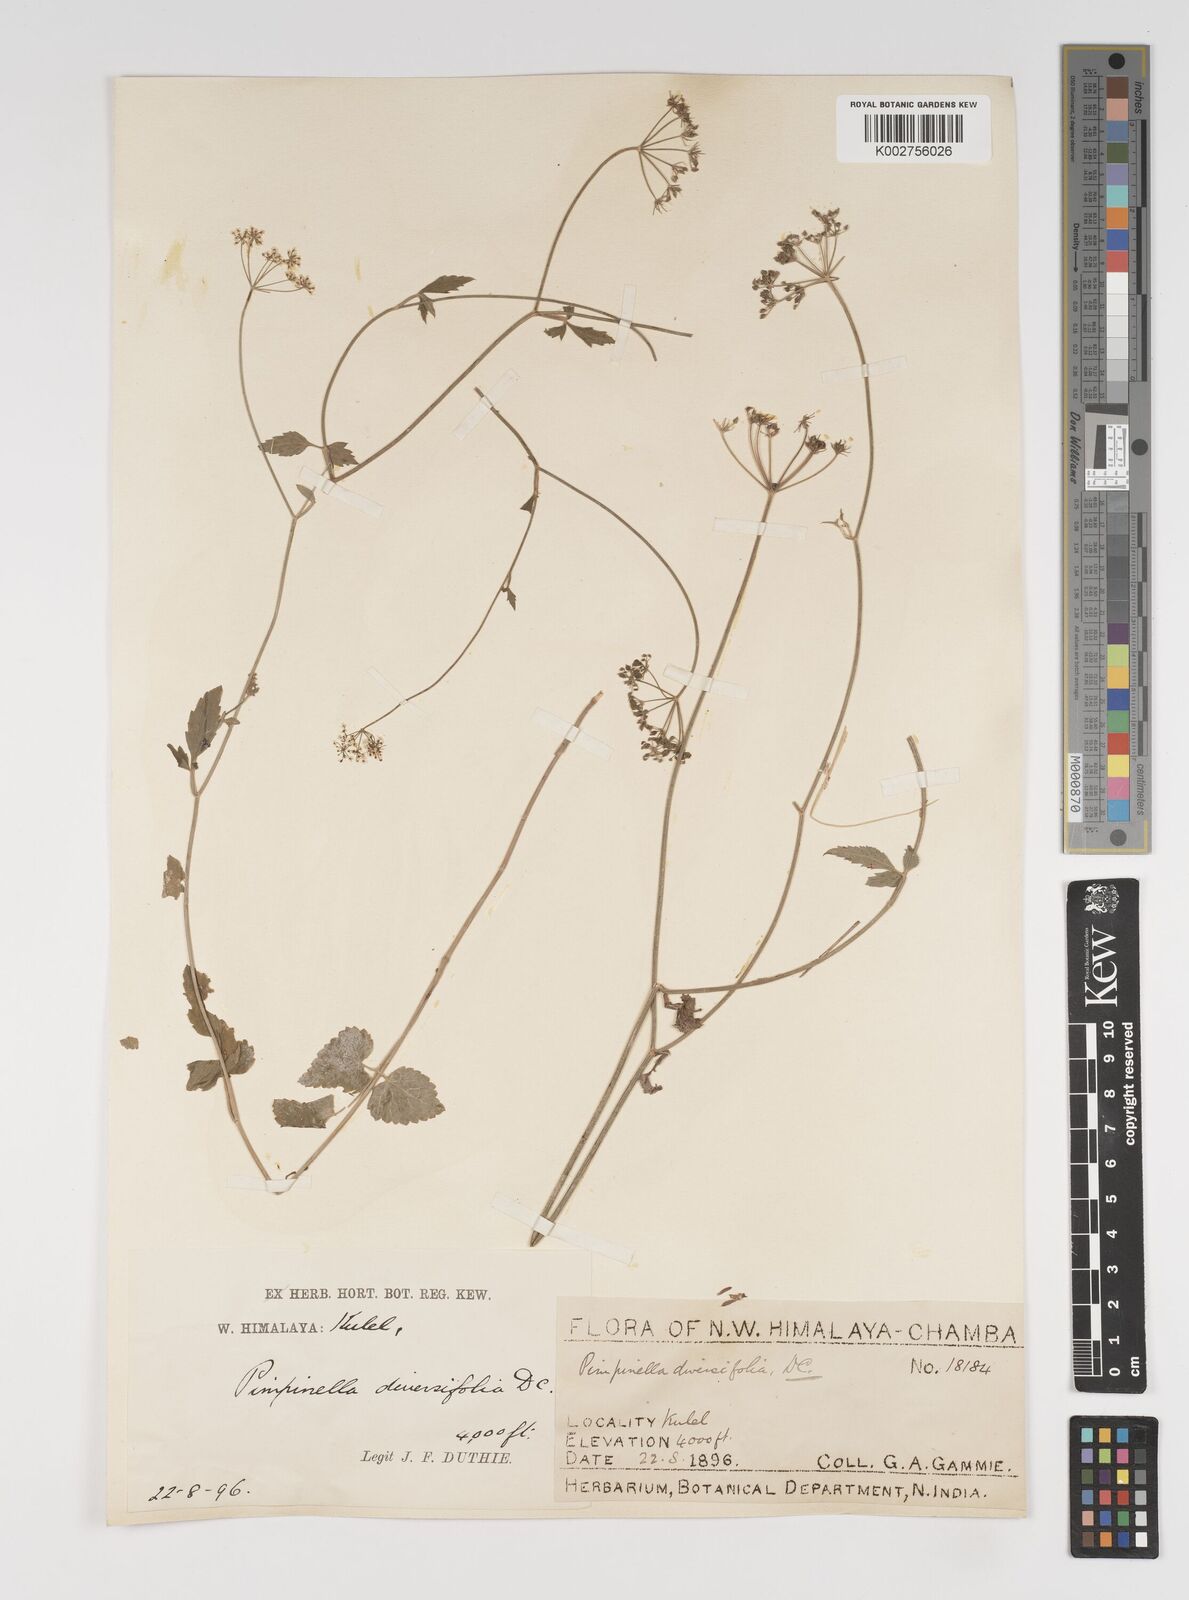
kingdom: Plantae
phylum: Tracheophyta
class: Magnoliopsida
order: Apiales
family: Apiaceae
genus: Pimpinella
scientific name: Pimpinella diversifolia
